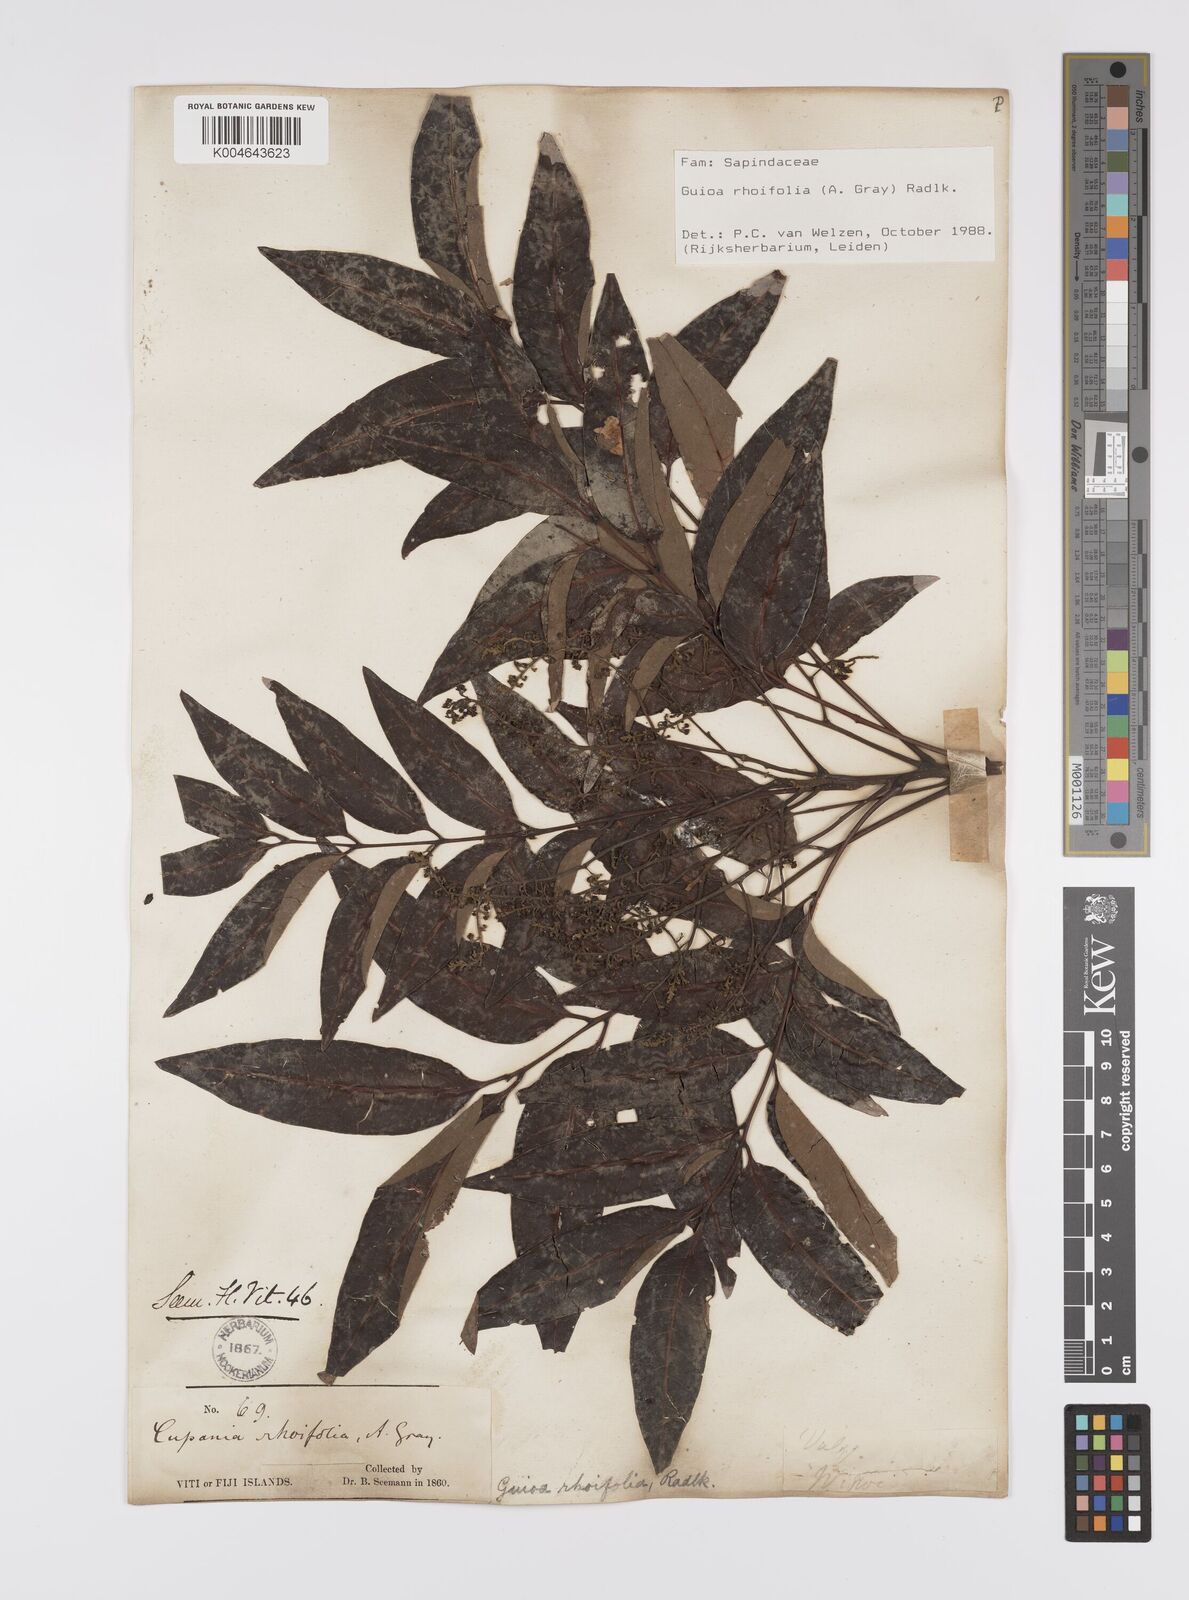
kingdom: Plantae
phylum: Tracheophyta
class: Magnoliopsida
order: Sapindales
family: Sapindaceae
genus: Guioa
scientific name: Guioa rhoifolia
